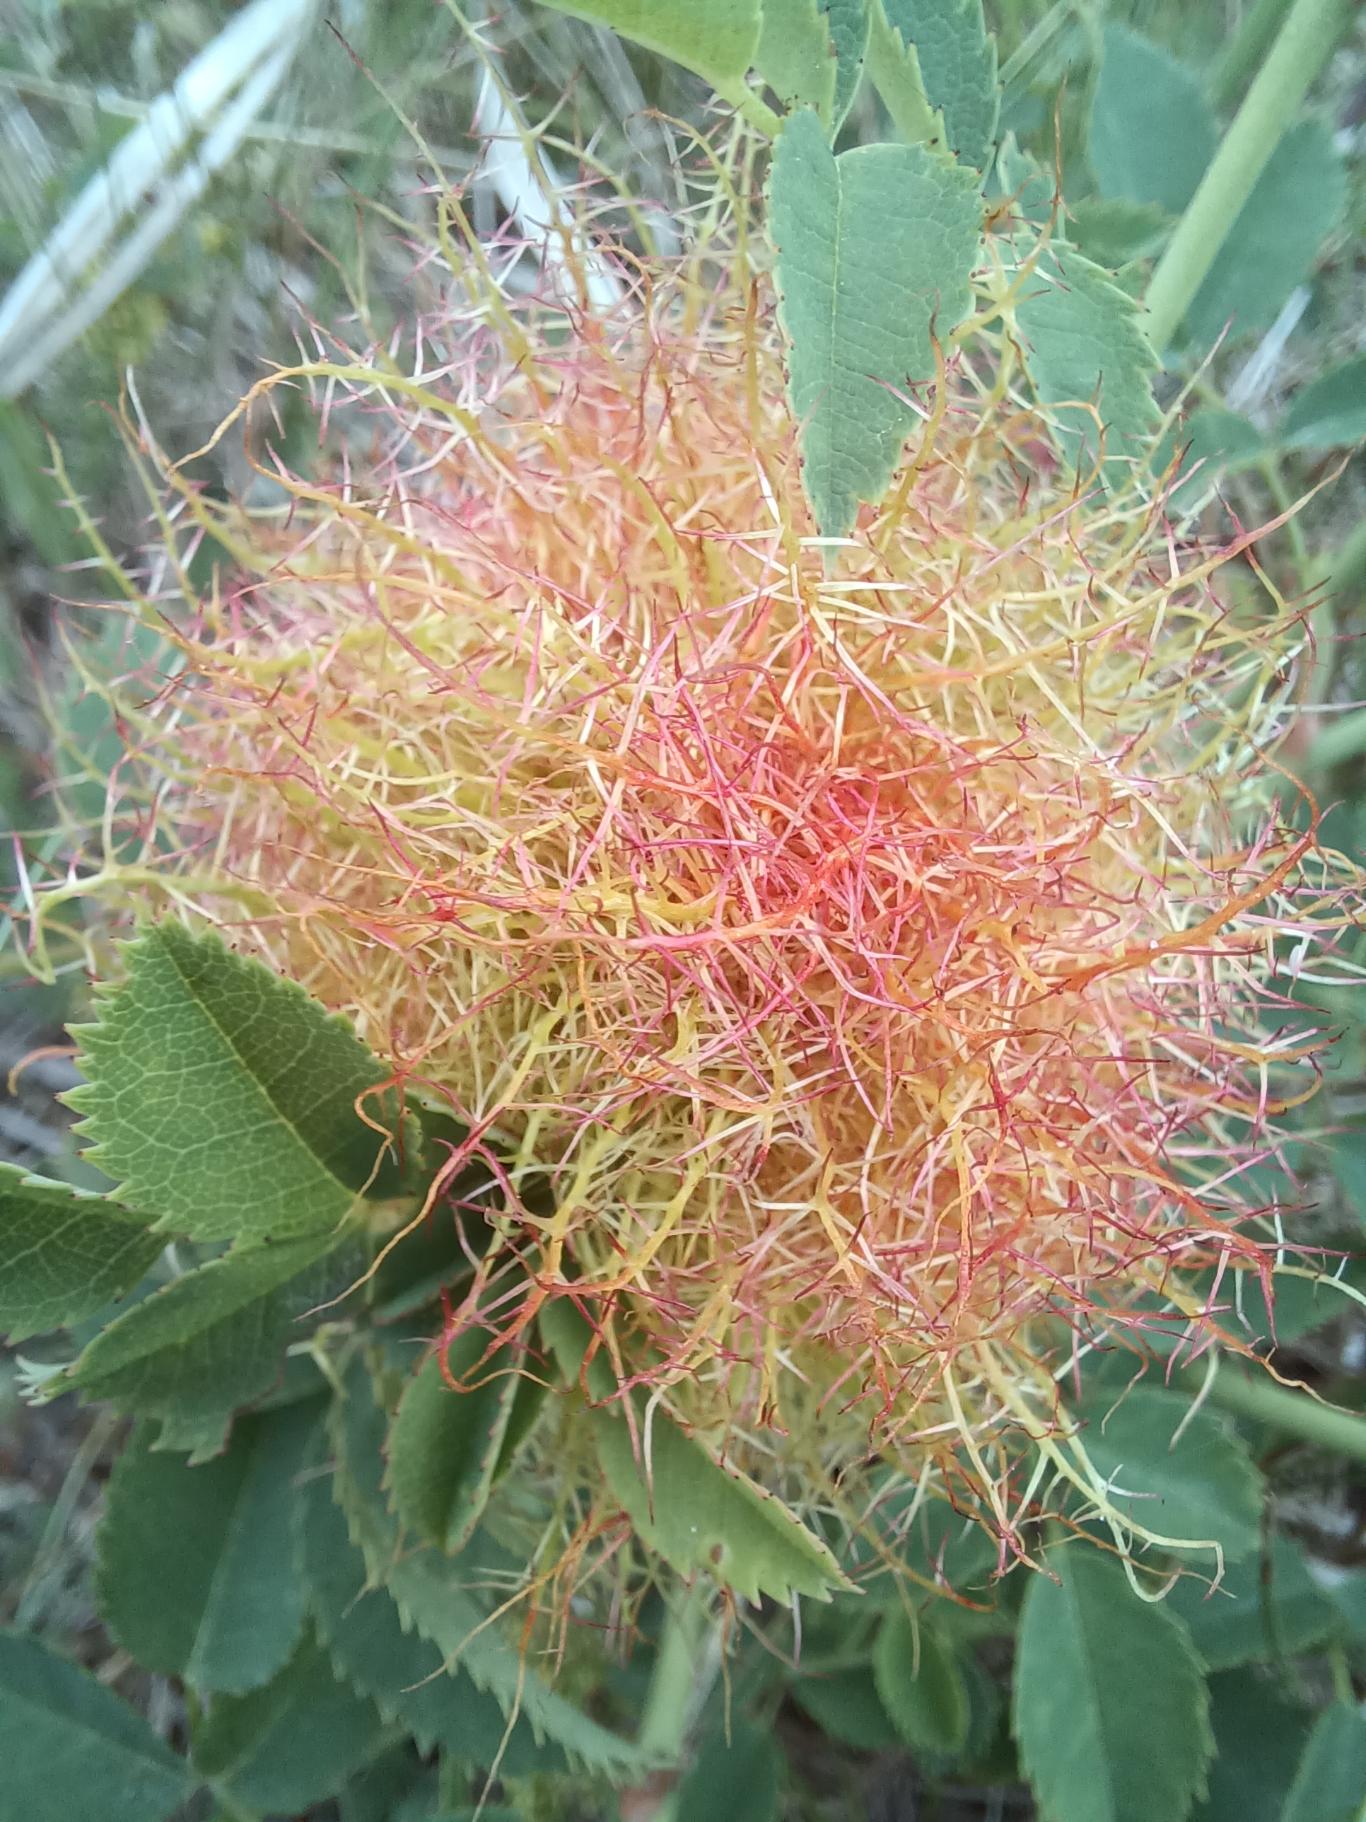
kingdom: Animalia
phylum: Arthropoda
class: Insecta
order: Hymenoptera
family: Cynipidae
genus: Diplolepis
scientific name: Diplolepis rosae
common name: Bedeguargalhveps
